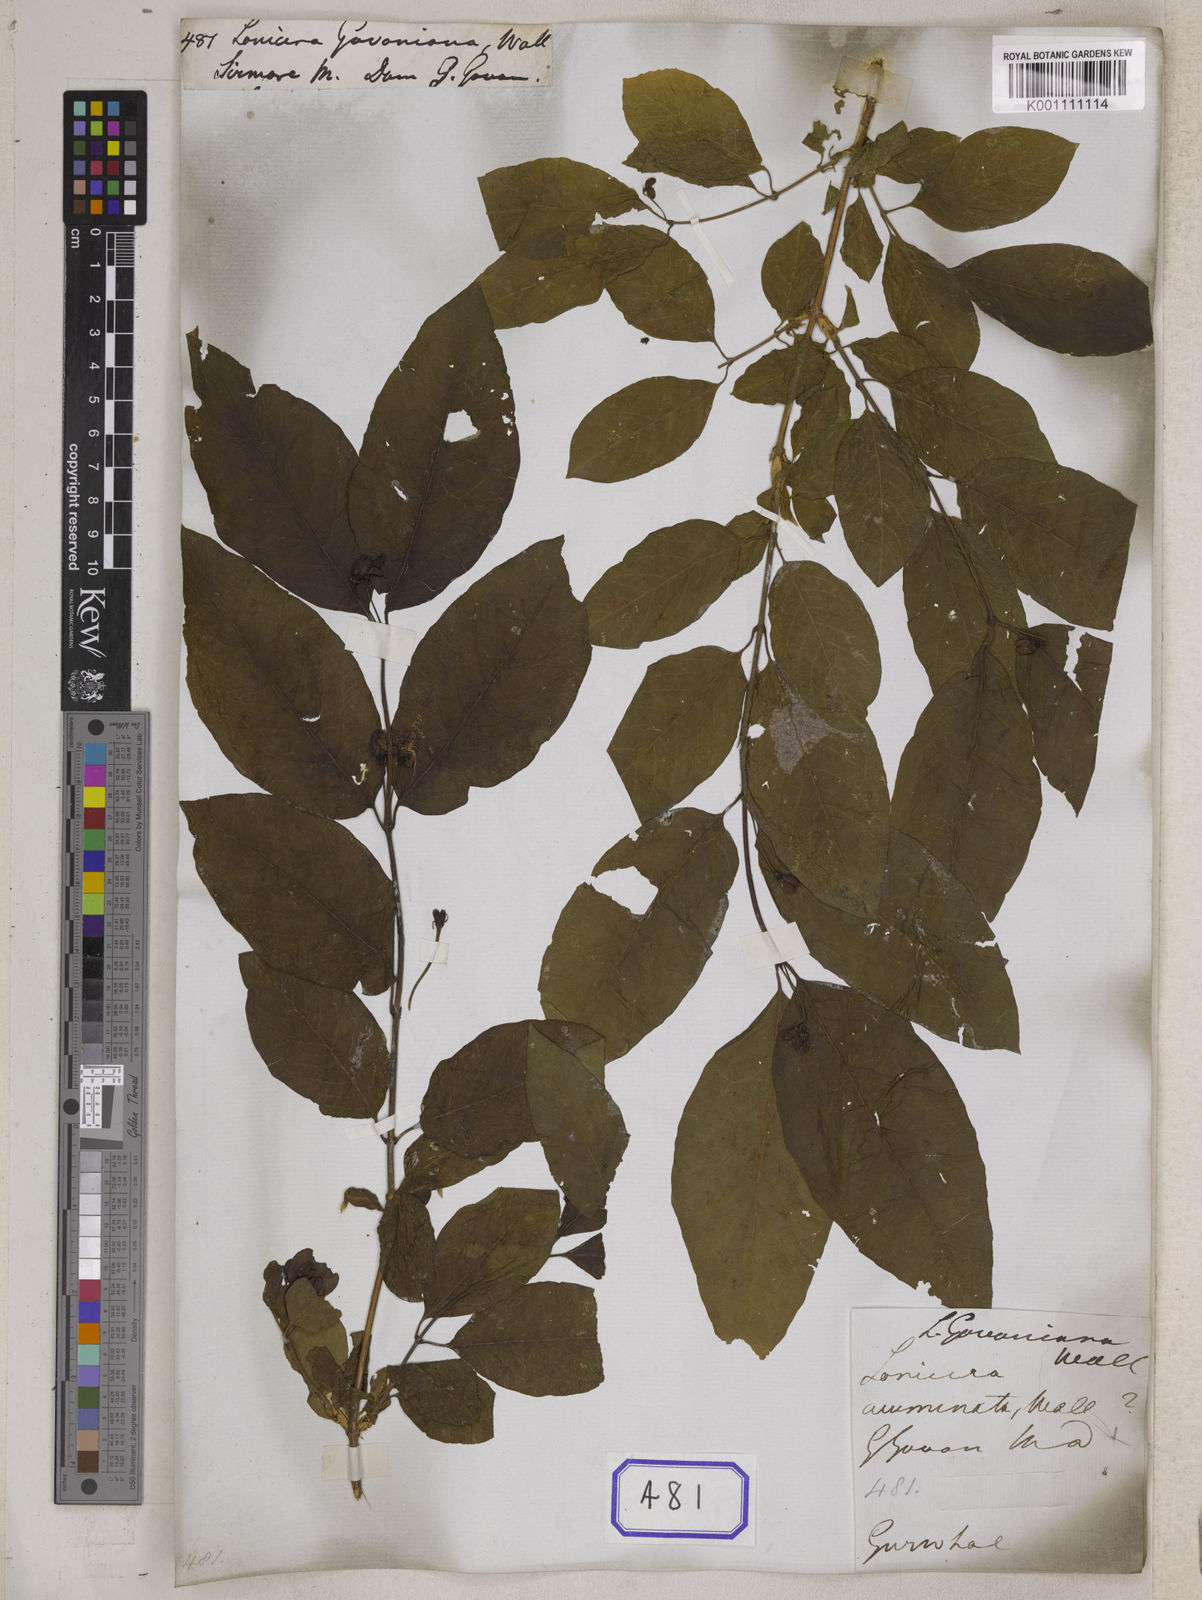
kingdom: Plantae
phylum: Tracheophyta
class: Magnoliopsida
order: Dipsacales
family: Caprifoliaceae
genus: Lonicera
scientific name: Lonicera
